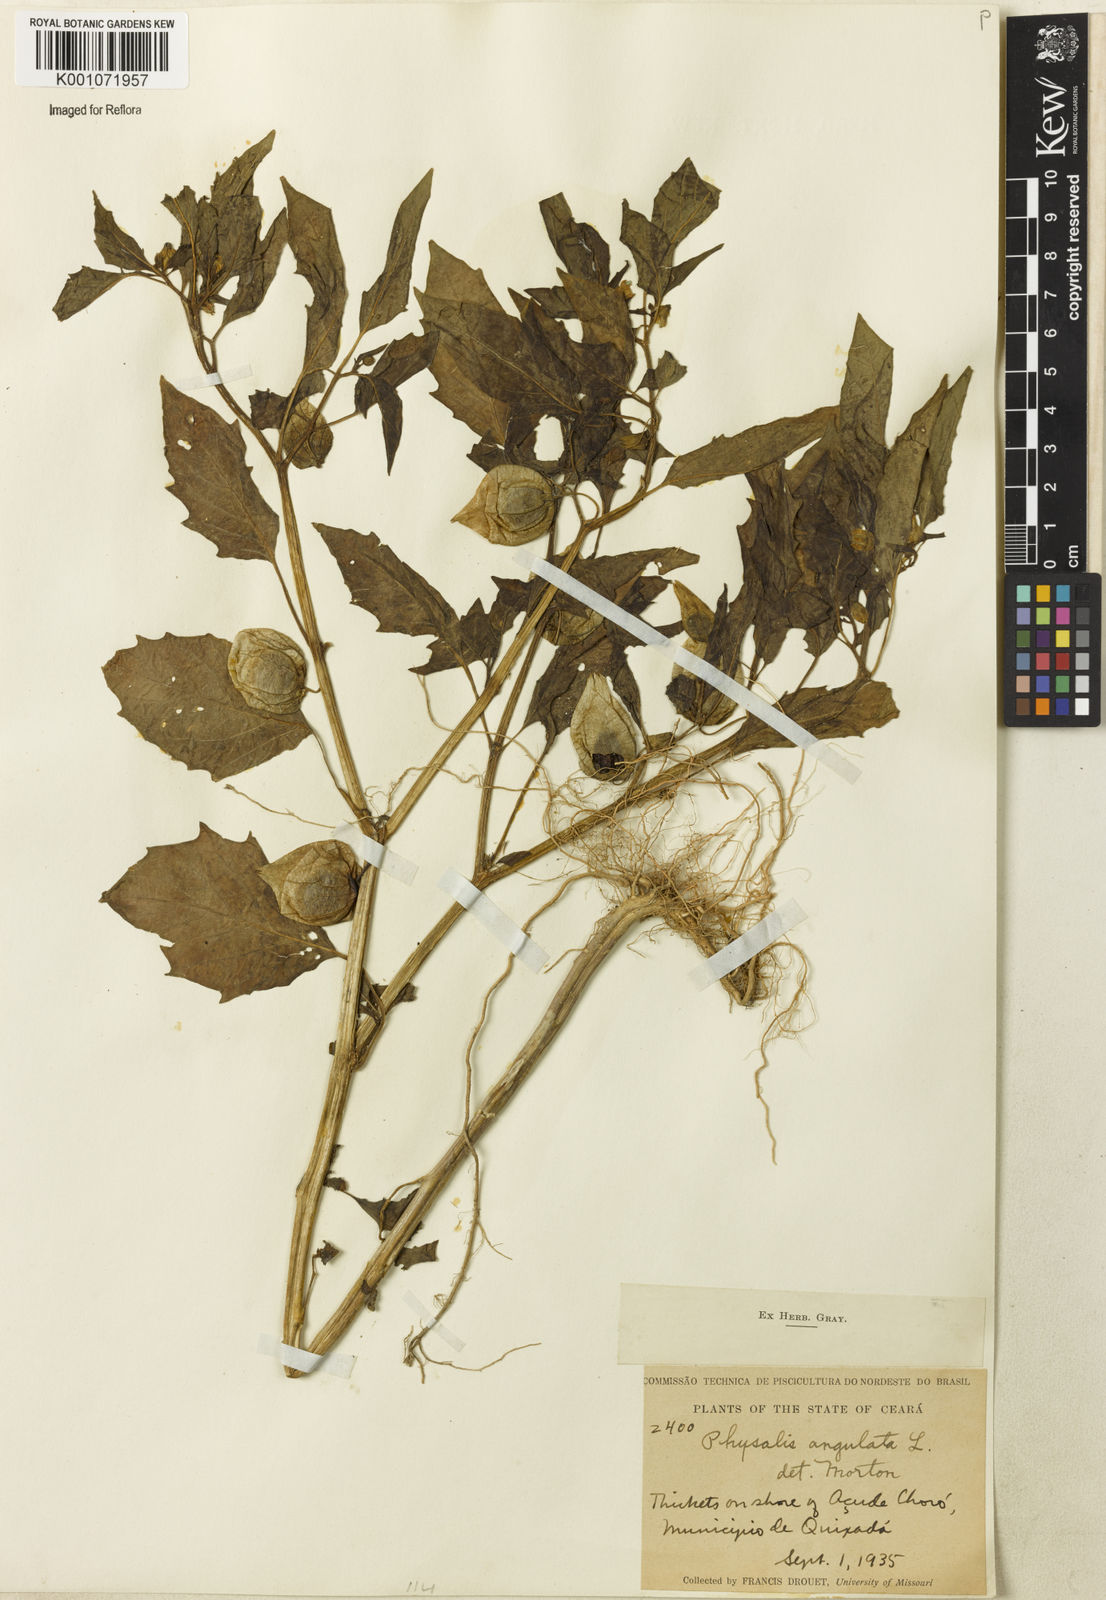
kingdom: Plantae
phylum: Tracheophyta
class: Magnoliopsida
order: Solanales
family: Solanaceae
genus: Physalis
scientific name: Physalis angulata
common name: Angular winter-cherry
